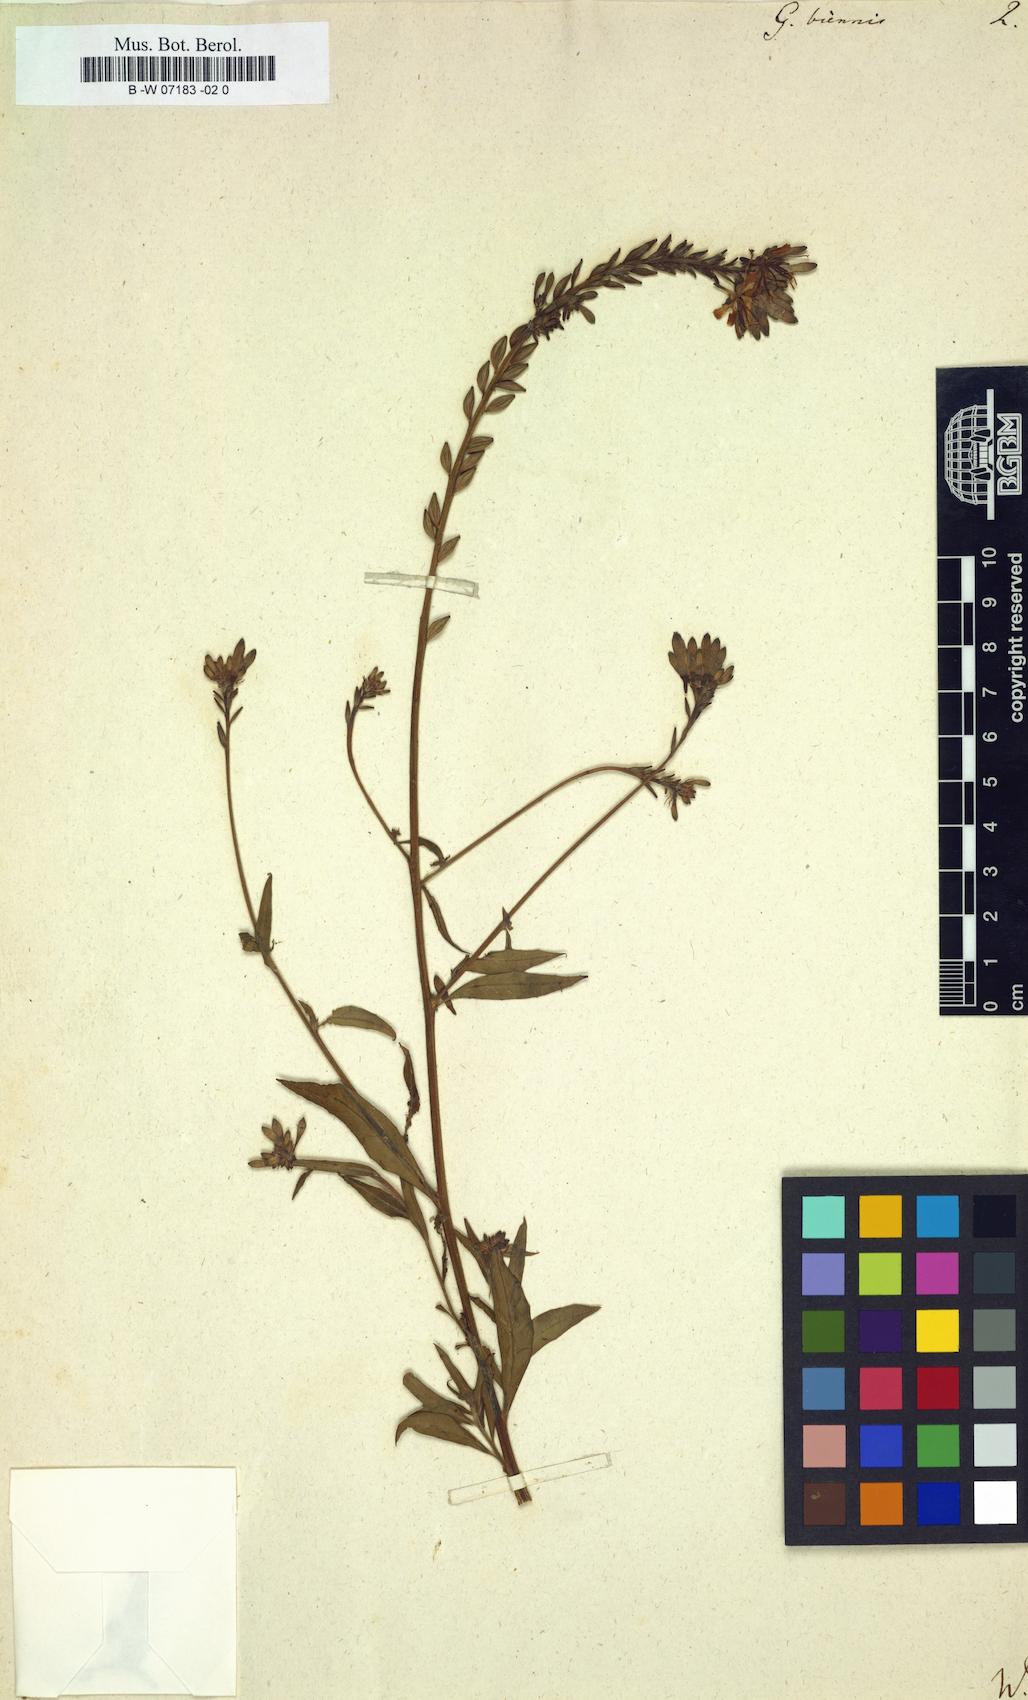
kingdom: Plantae
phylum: Tracheophyta
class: Magnoliopsida
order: Myrtales
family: Onagraceae
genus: Oenothera
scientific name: Oenothera gaura
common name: Biennial beeblossom
